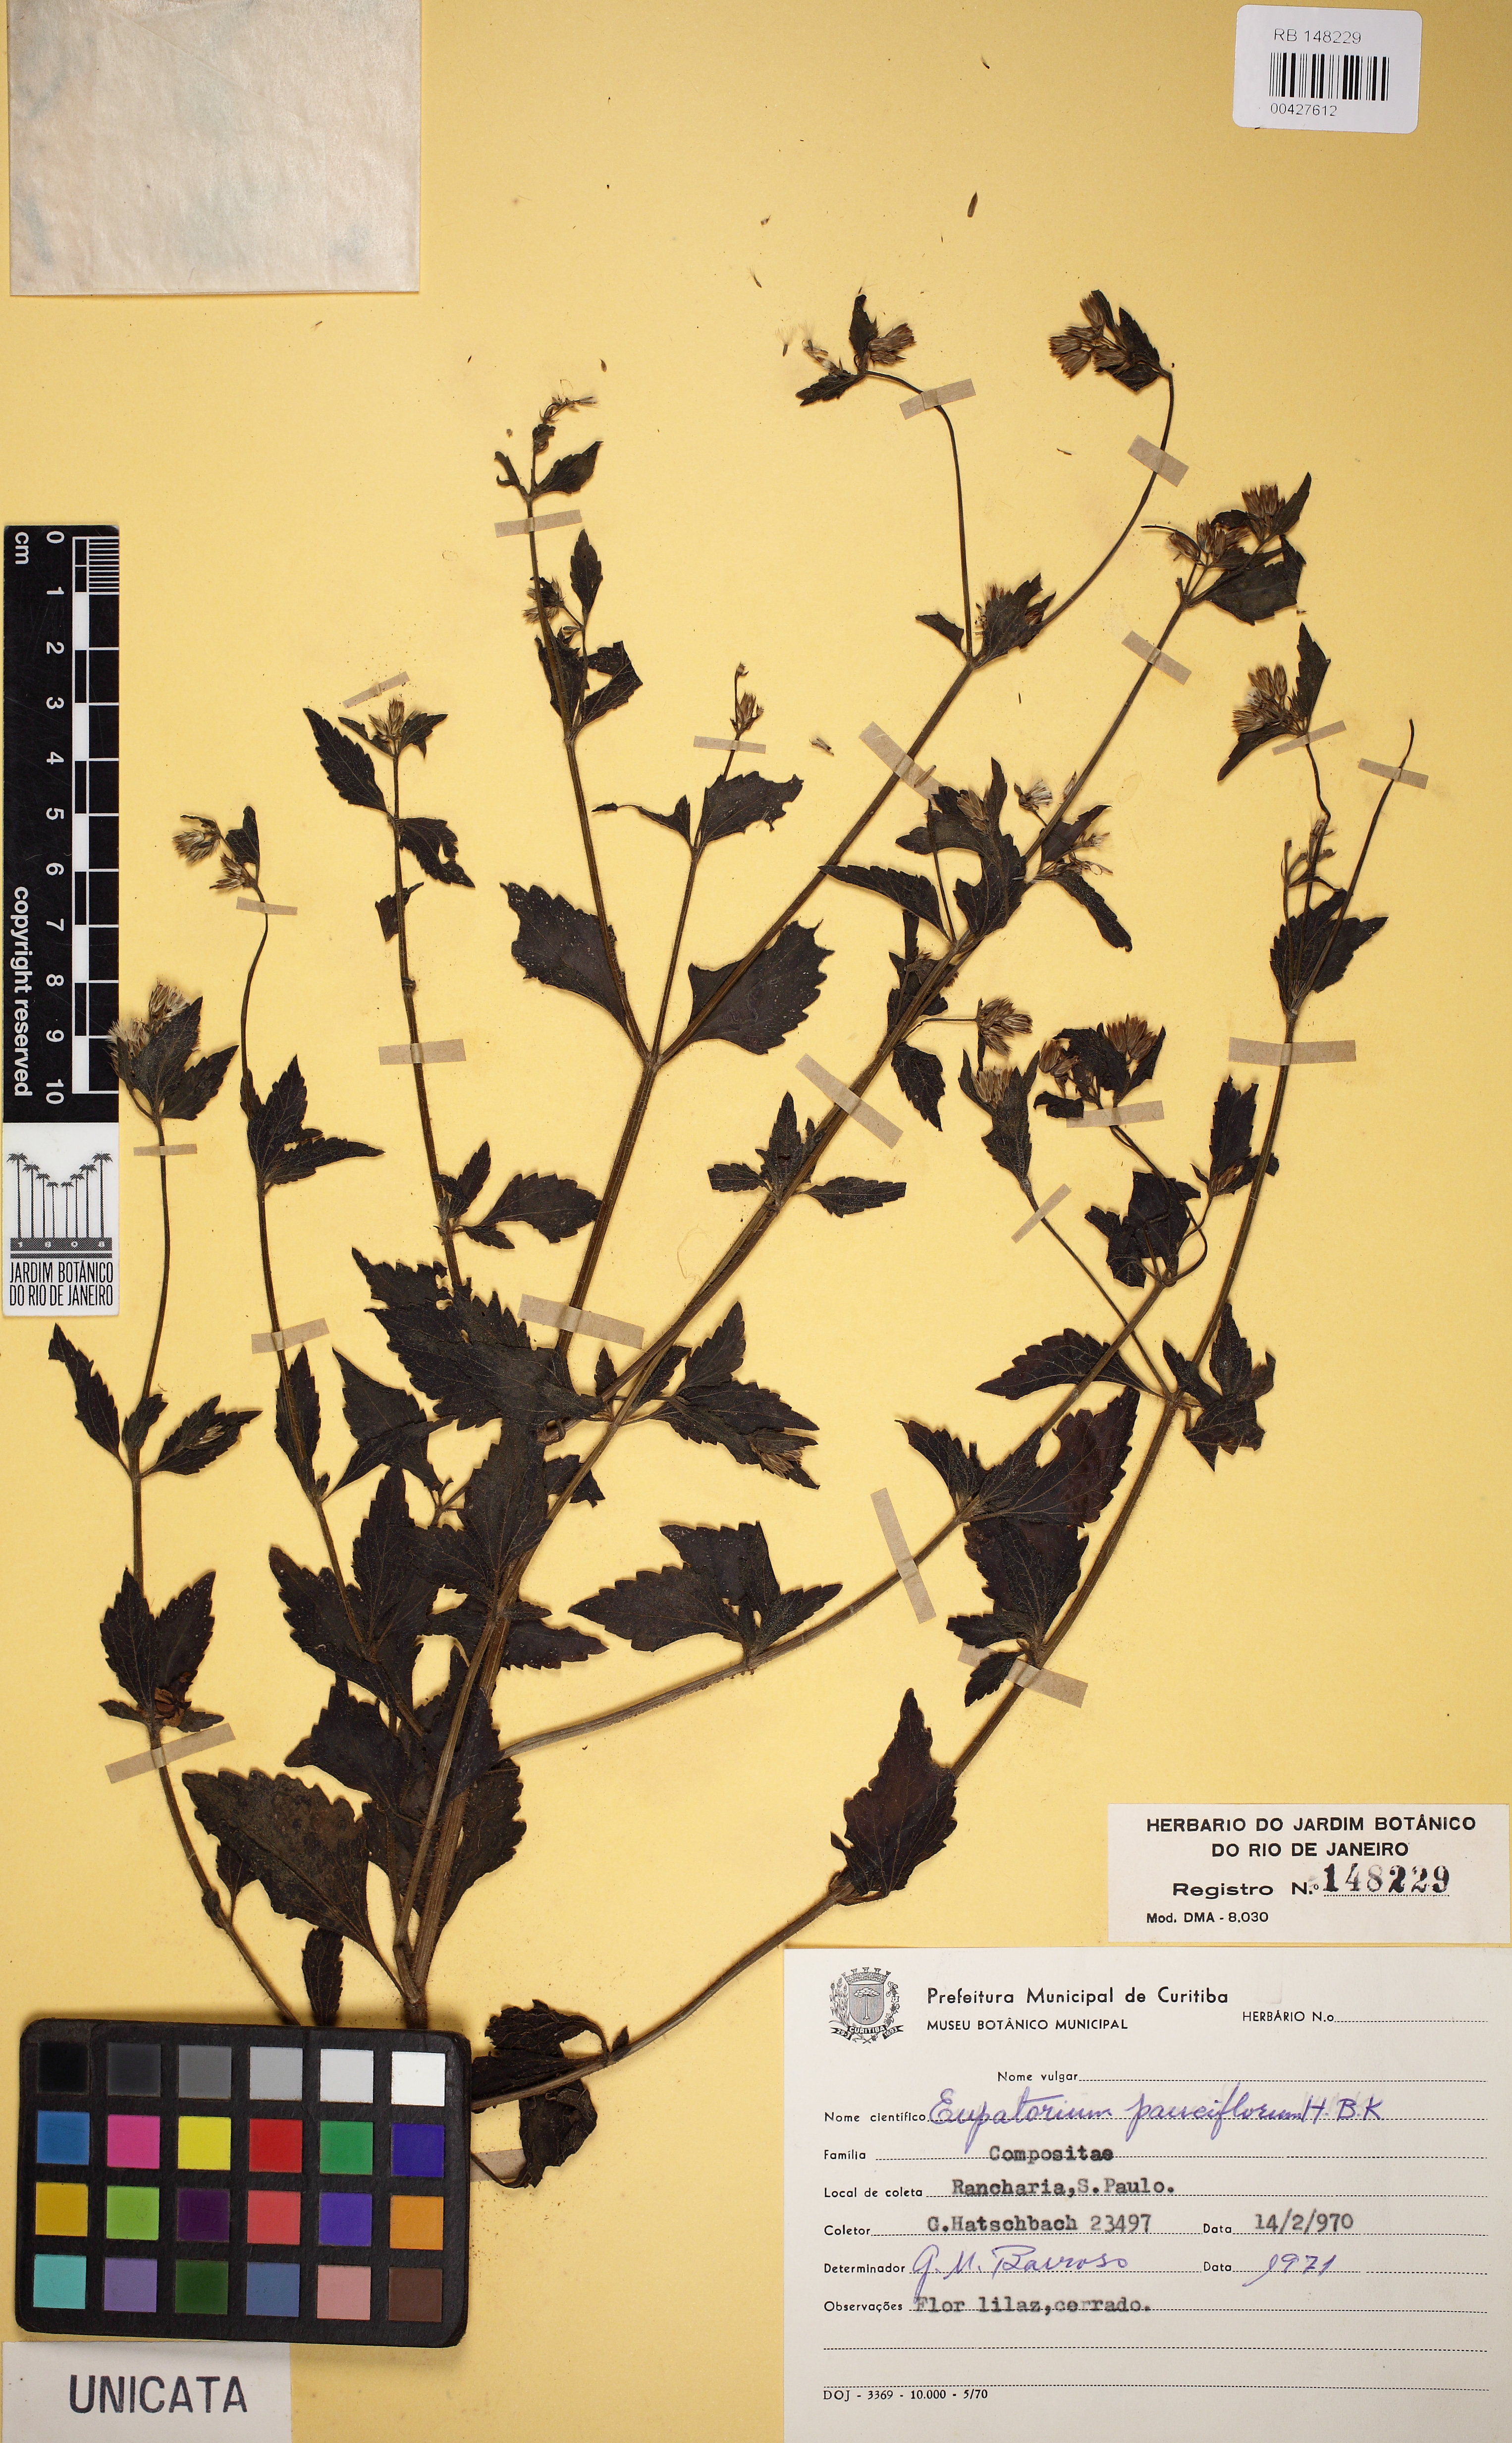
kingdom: Plantae
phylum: Tracheophyta
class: Magnoliopsida
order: Asterales
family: Asteraceae
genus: Praxelis
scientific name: Praxelis diffusa
